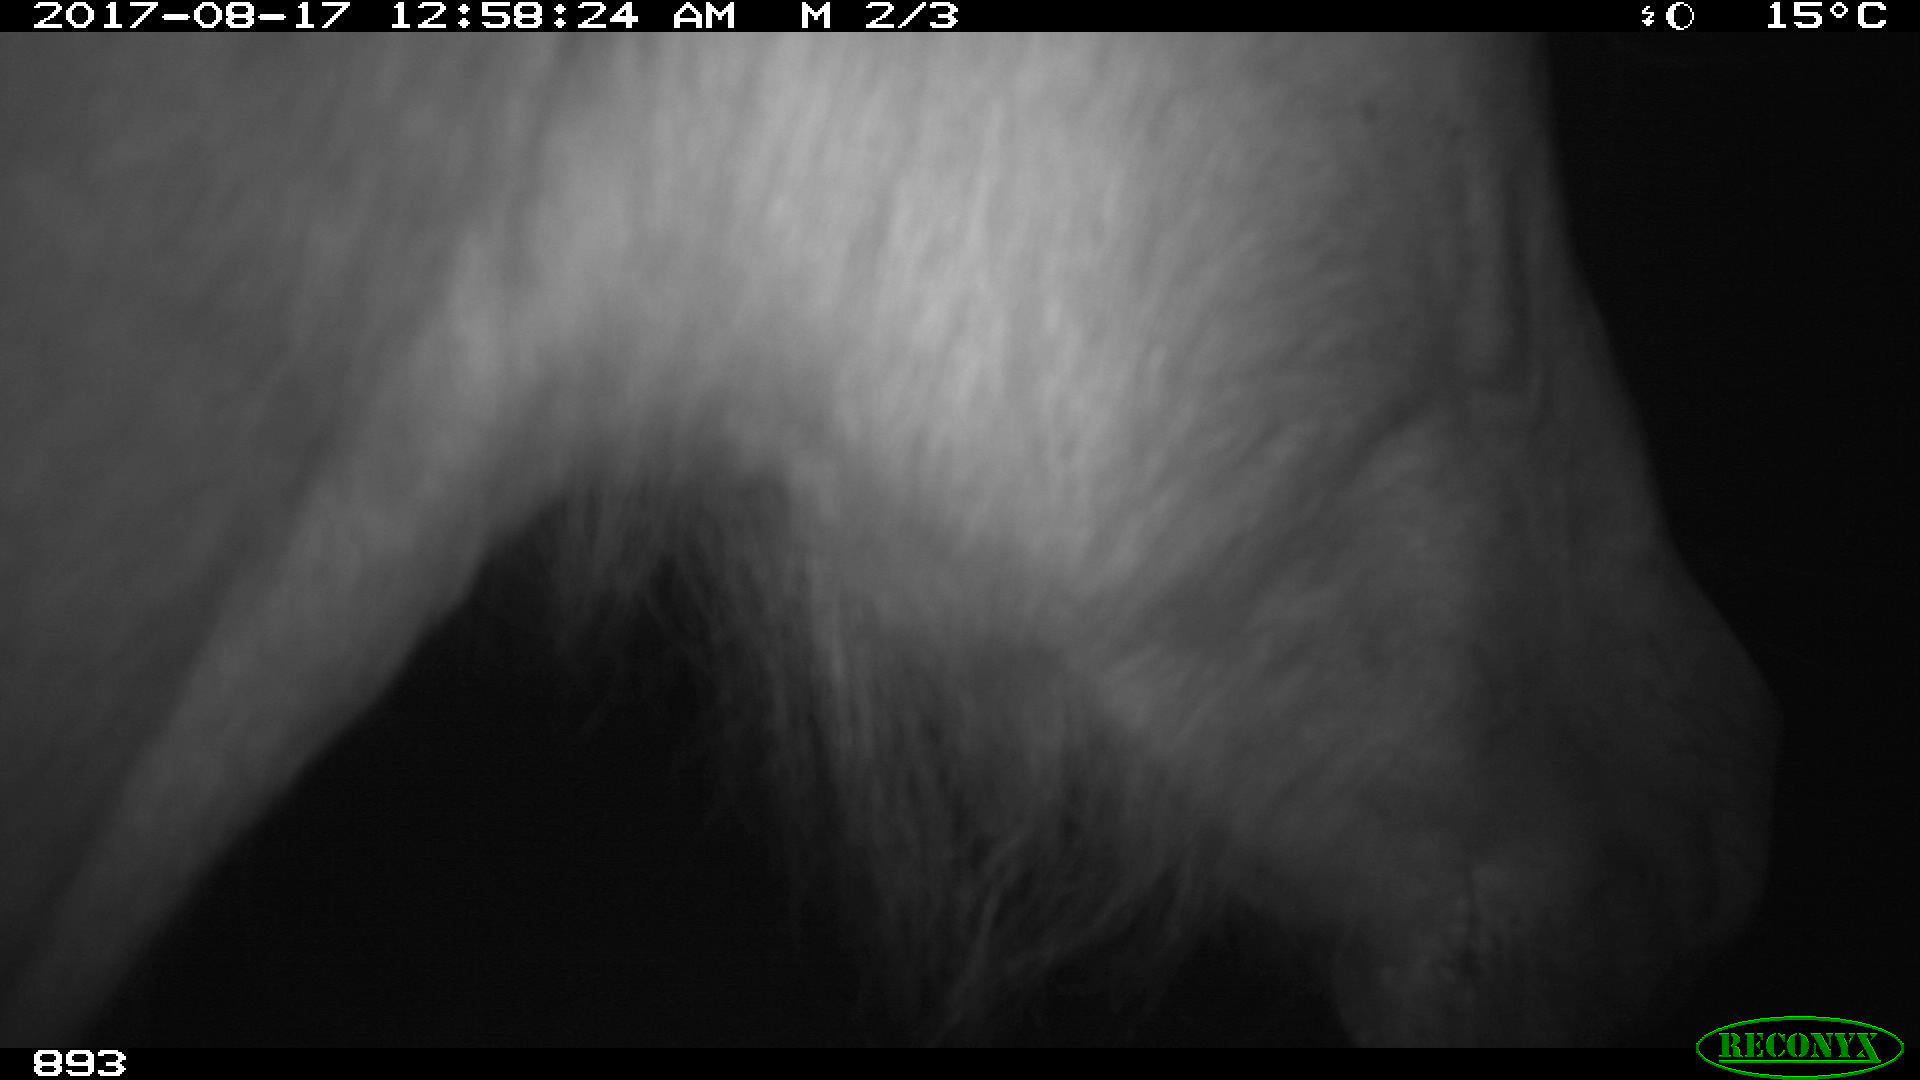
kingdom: Animalia
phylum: Chordata
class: Mammalia
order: Perissodactyla
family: Equidae
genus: Equus
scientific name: Equus caballus
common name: Horse
